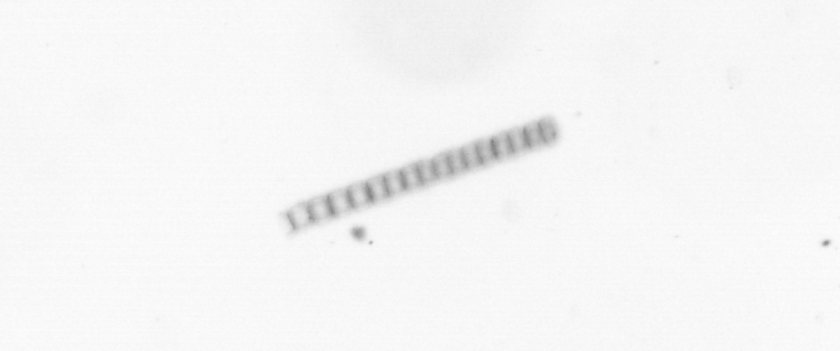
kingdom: Chromista
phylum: Ochrophyta
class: Bacillariophyceae
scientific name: Bacillariophyceae
